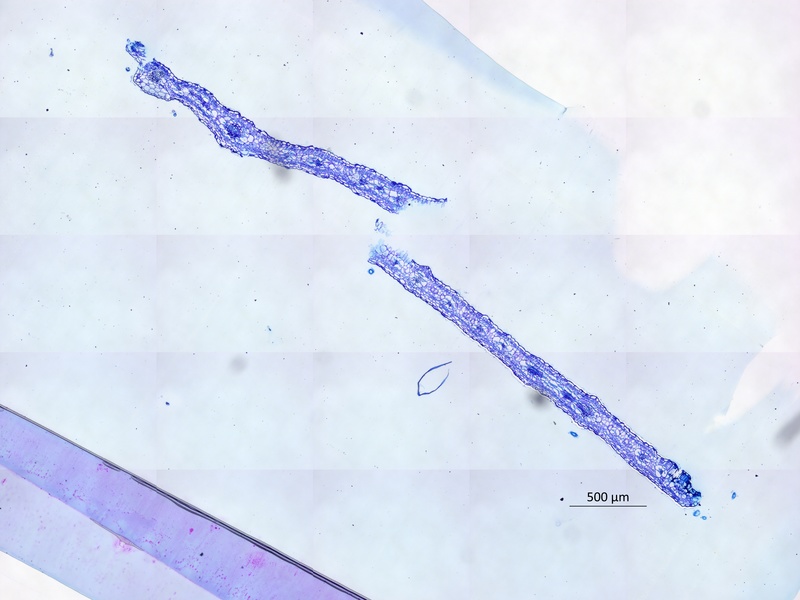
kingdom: Plantae
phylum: Tracheophyta
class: Magnoliopsida
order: Zygophyllales
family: Zygophyllaceae
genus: Kallstroemia
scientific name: Kallstroemia boliviana
